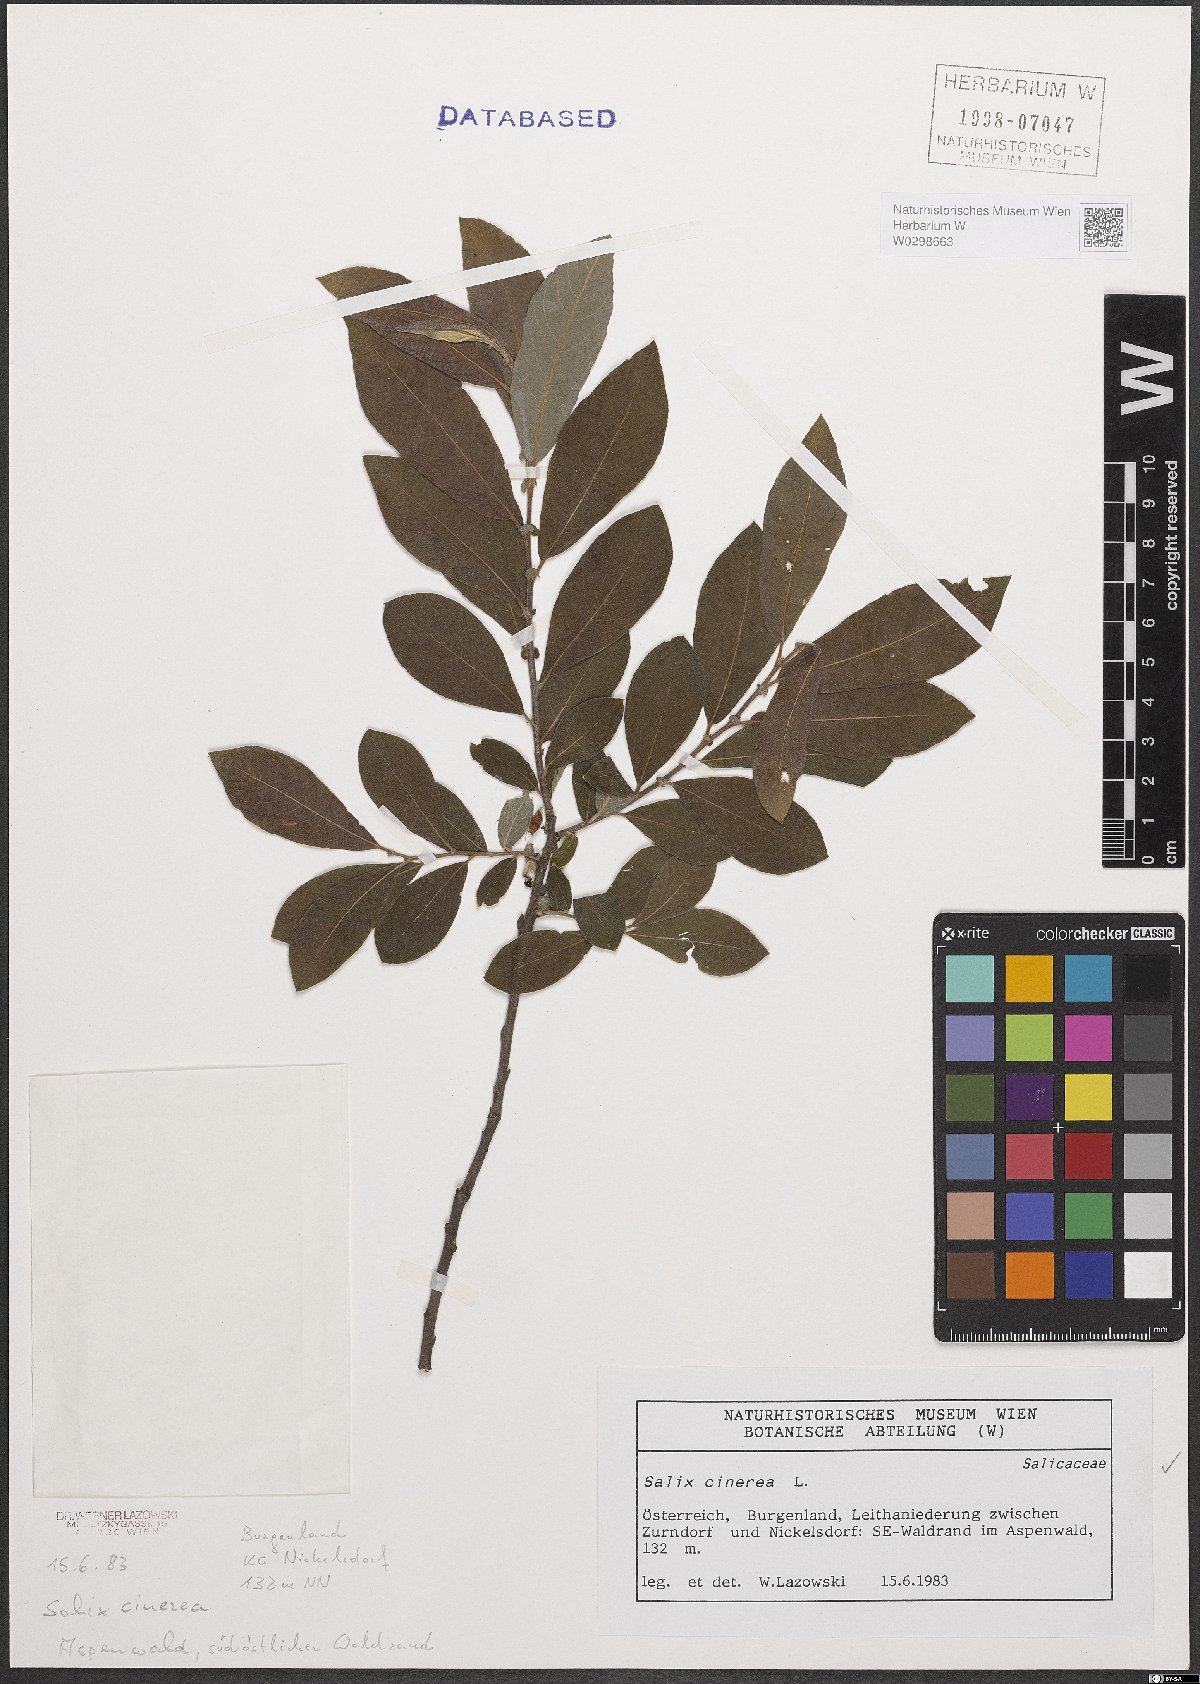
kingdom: Plantae
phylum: Tracheophyta
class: Magnoliopsida
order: Malpighiales
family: Salicaceae
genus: Salix
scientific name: Salix cinerea
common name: Common sallow
